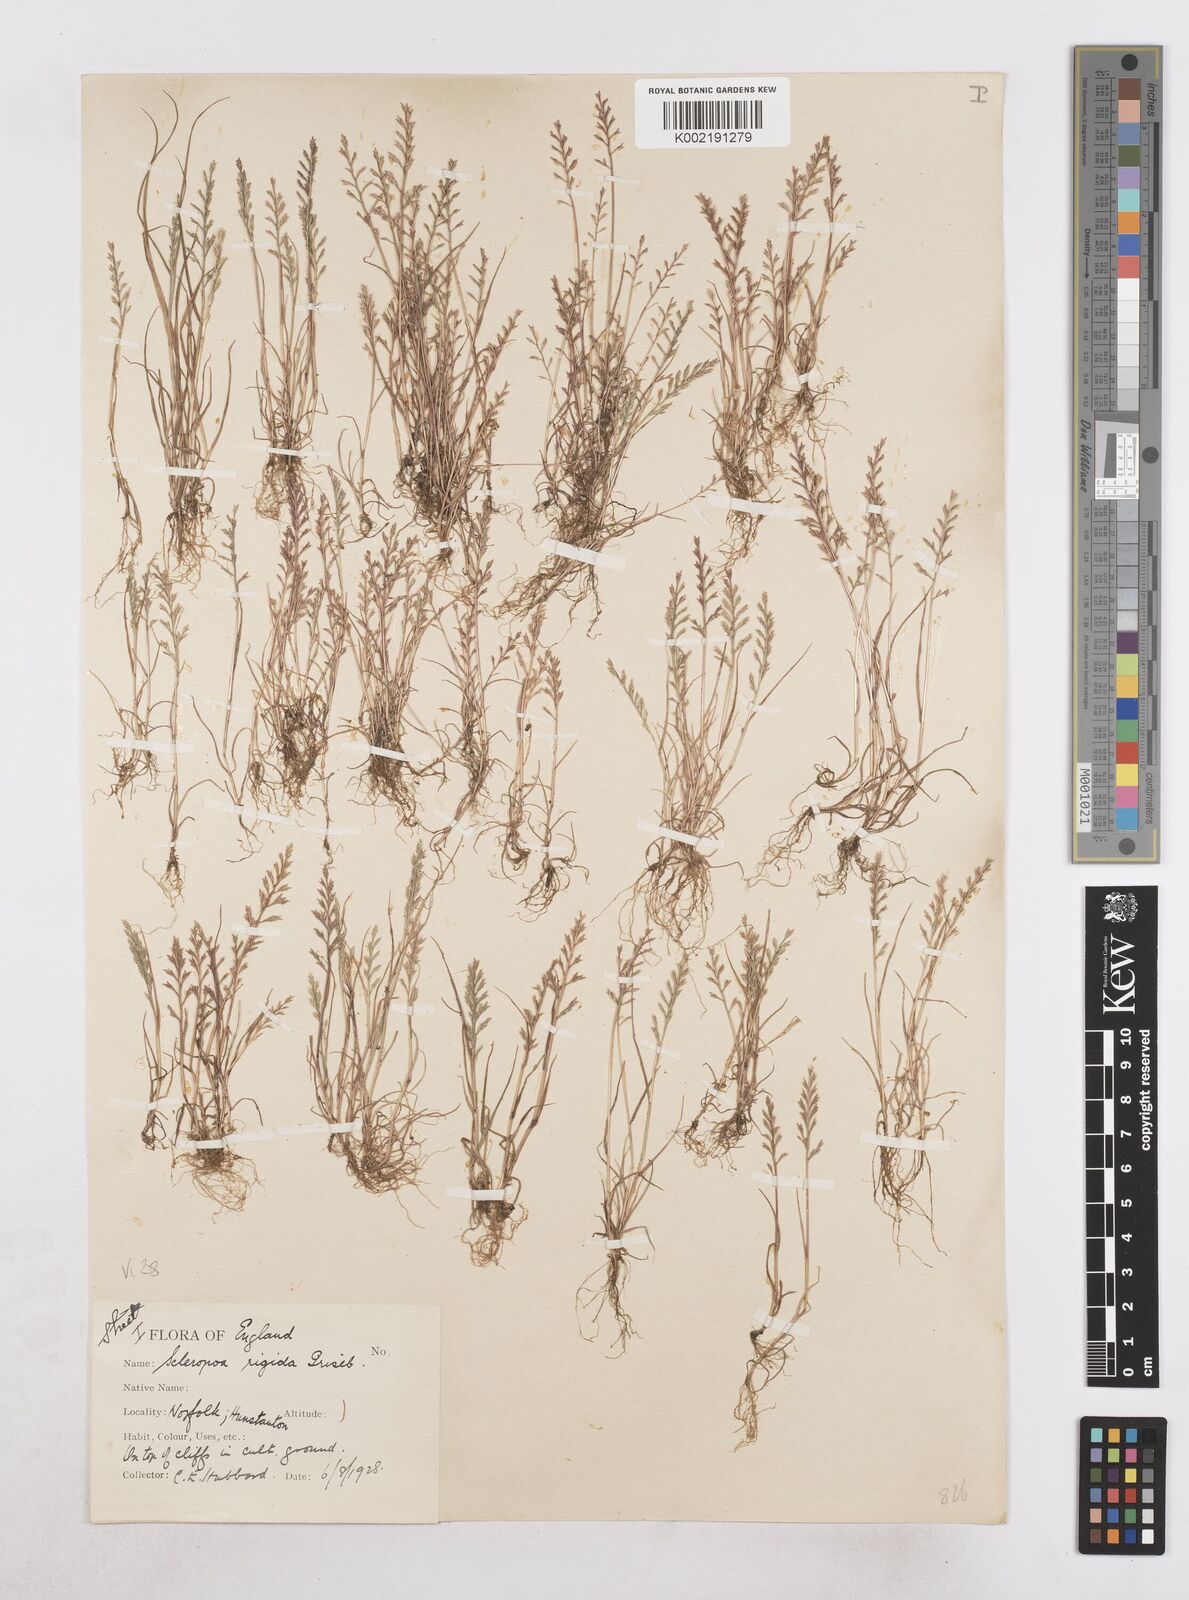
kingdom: Plantae
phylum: Tracheophyta
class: Liliopsida
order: Poales
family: Poaceae
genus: Catapodium
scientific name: Catapodium rigidum
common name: Fern-grass
